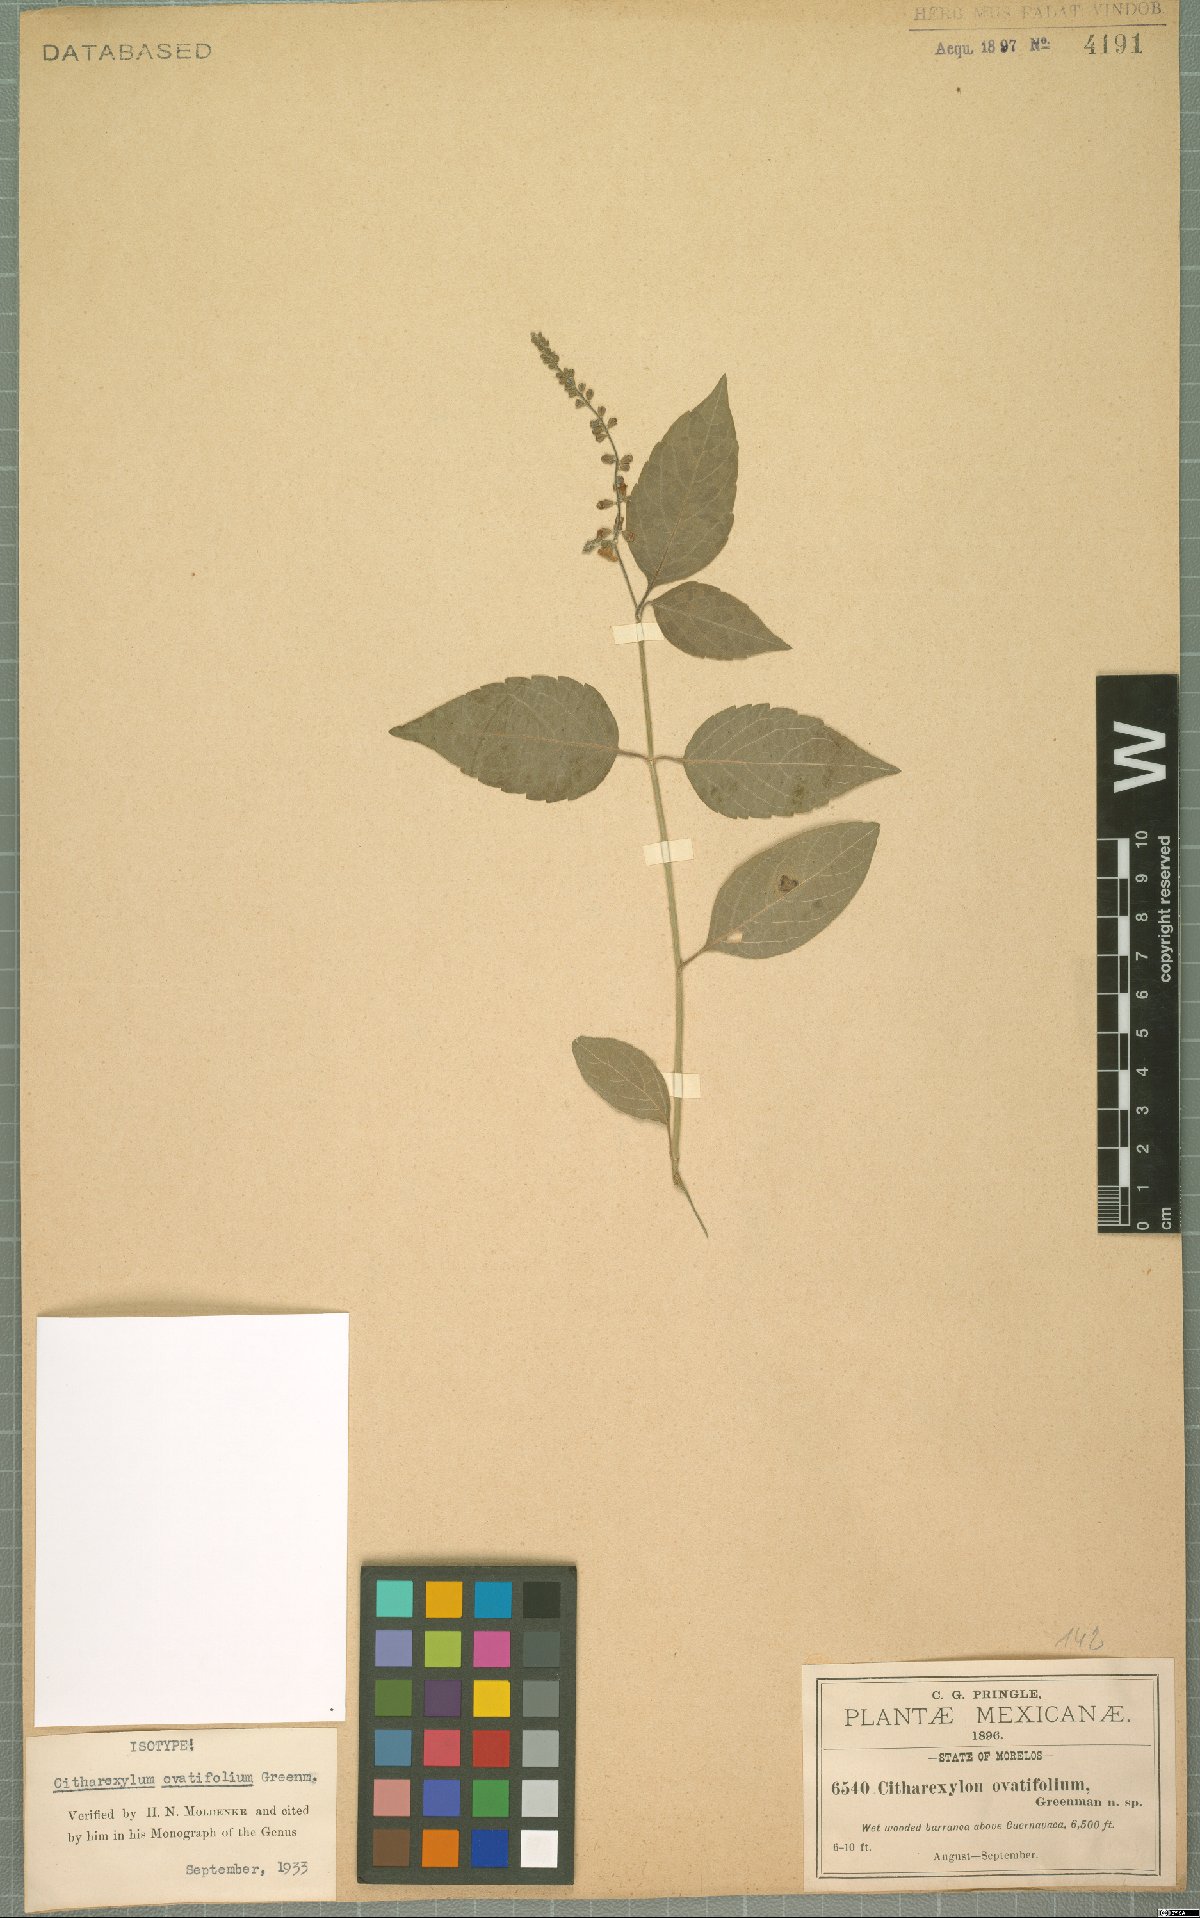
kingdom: Plantae
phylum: Tracheophyta
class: Magnoliopsida
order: Lamiales
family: Verbenaceae
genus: Citharexylum
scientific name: Citharexylum ovatifolium
